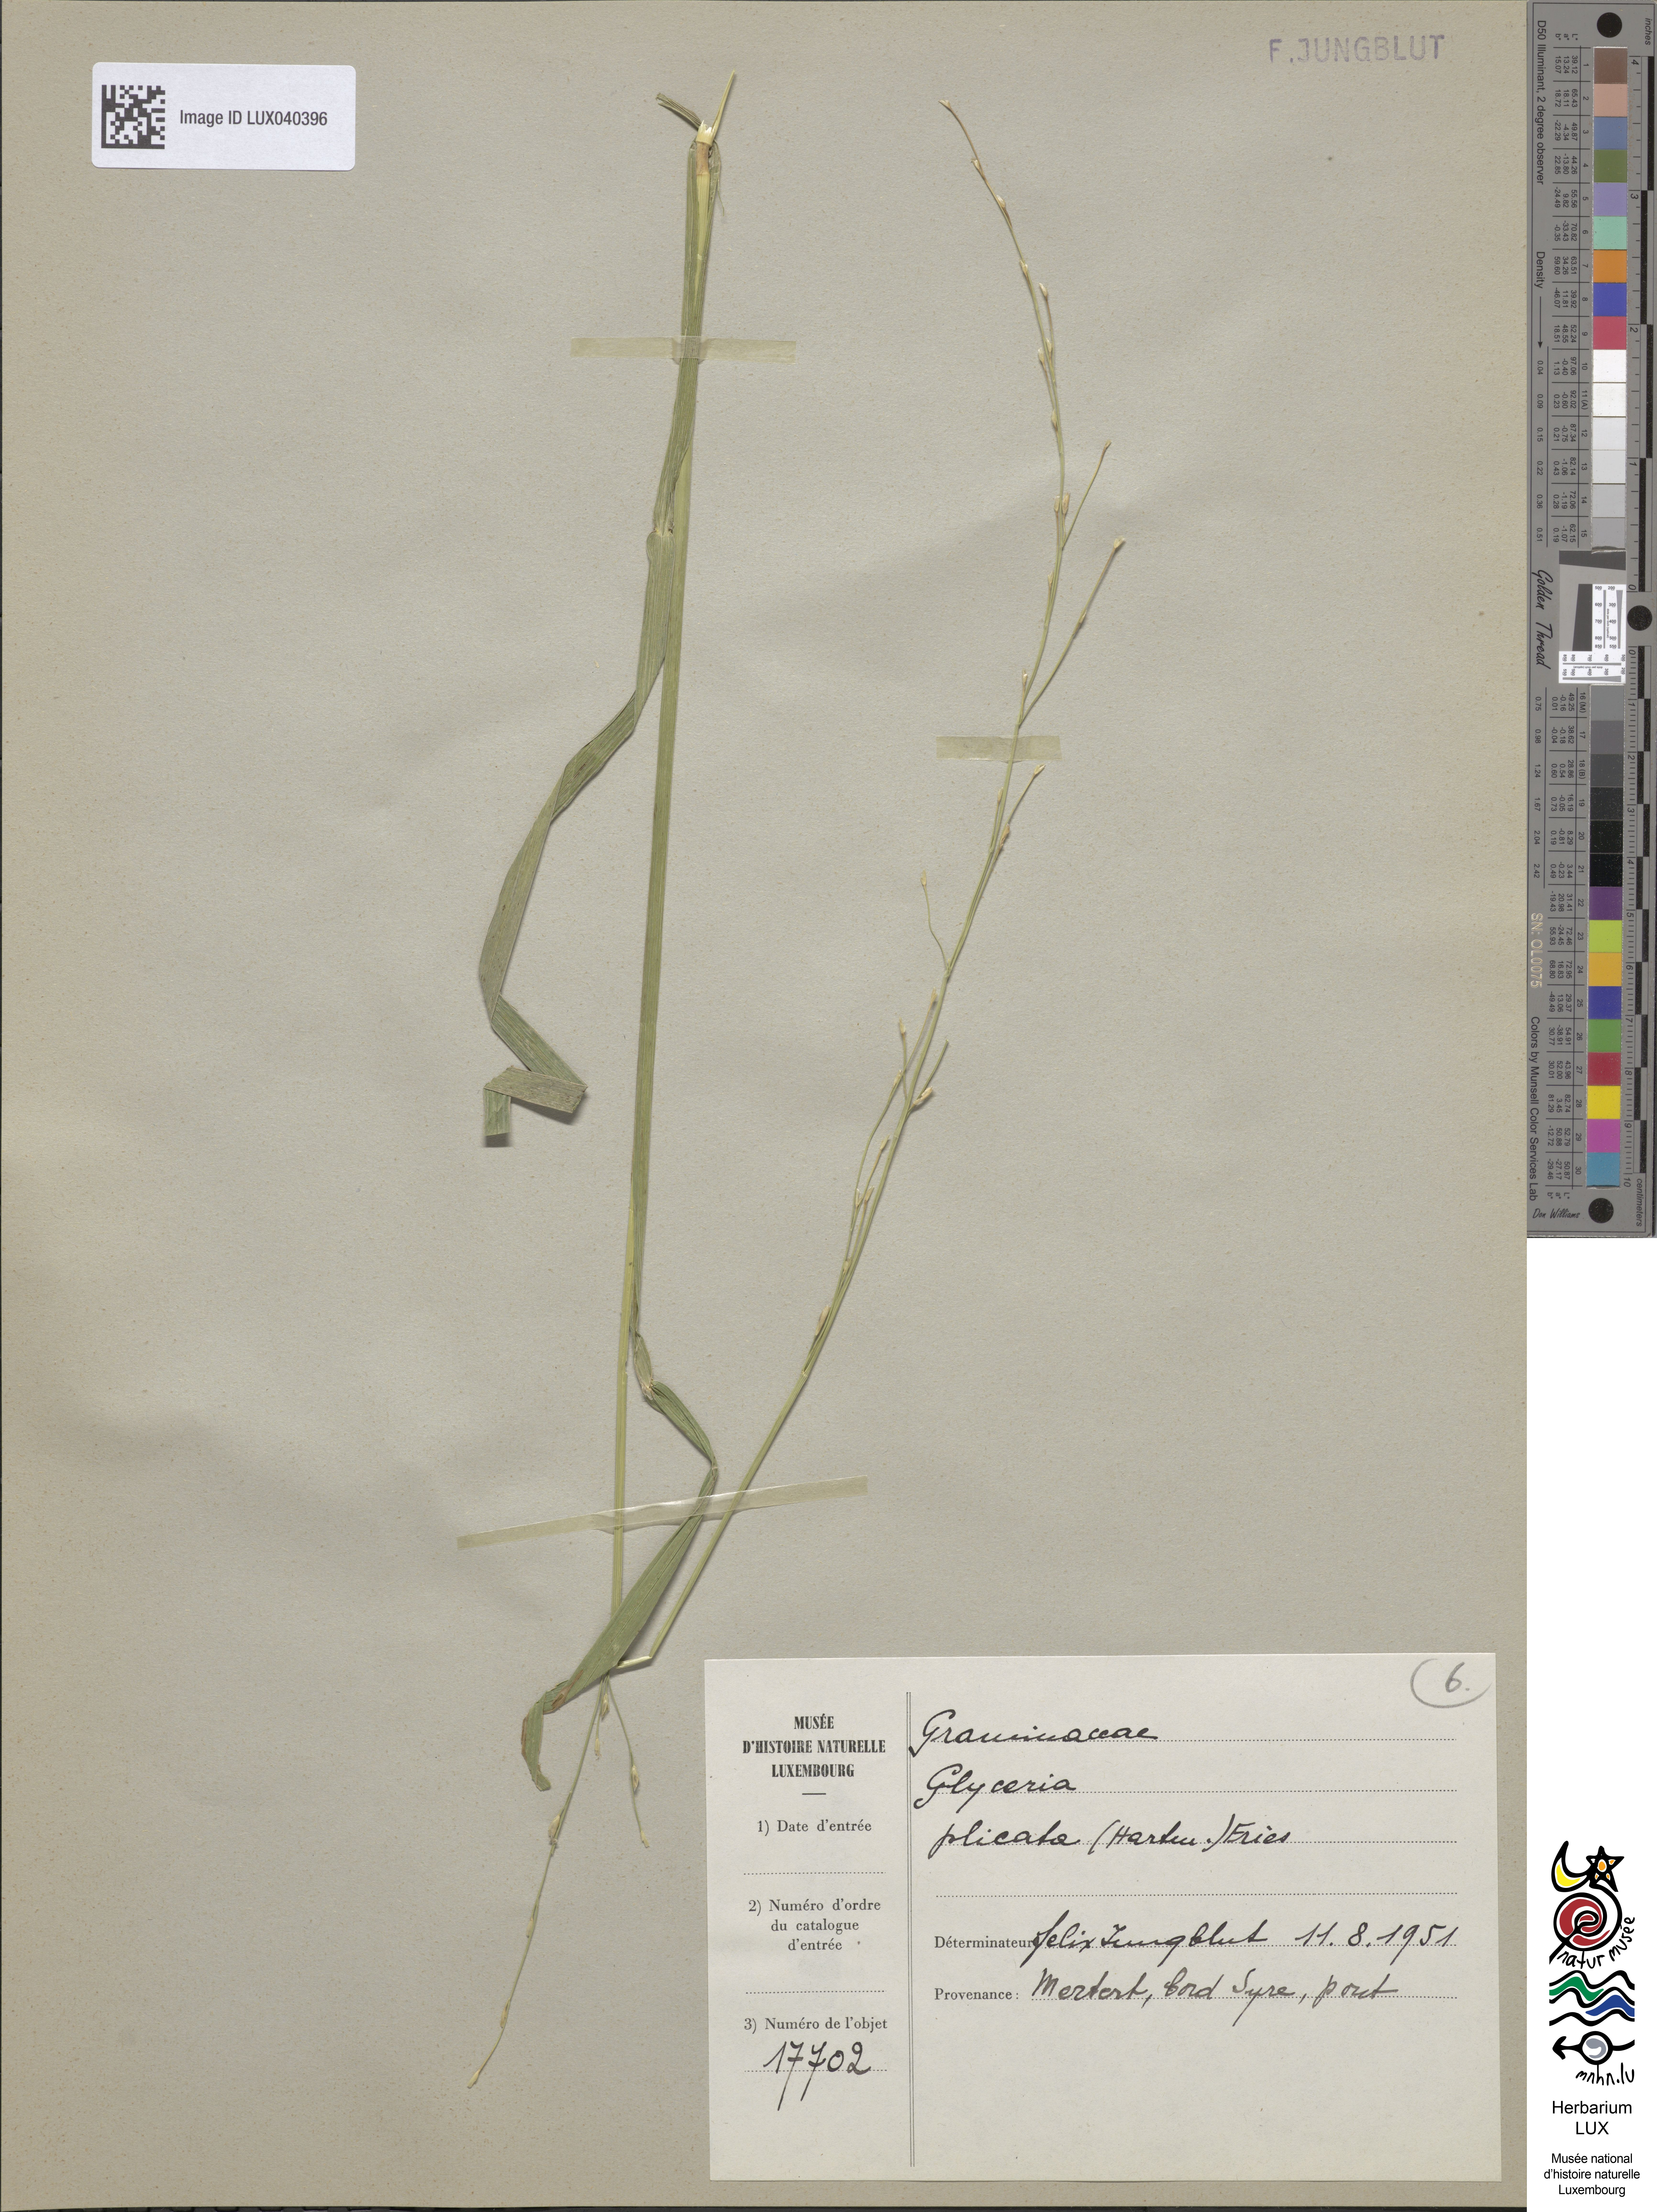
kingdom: Plantae
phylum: Tracheophyta
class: Liliopsida
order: Poales
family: Poaceae
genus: Glyceria
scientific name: Glyceria notata
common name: Plicate sweet-grass
